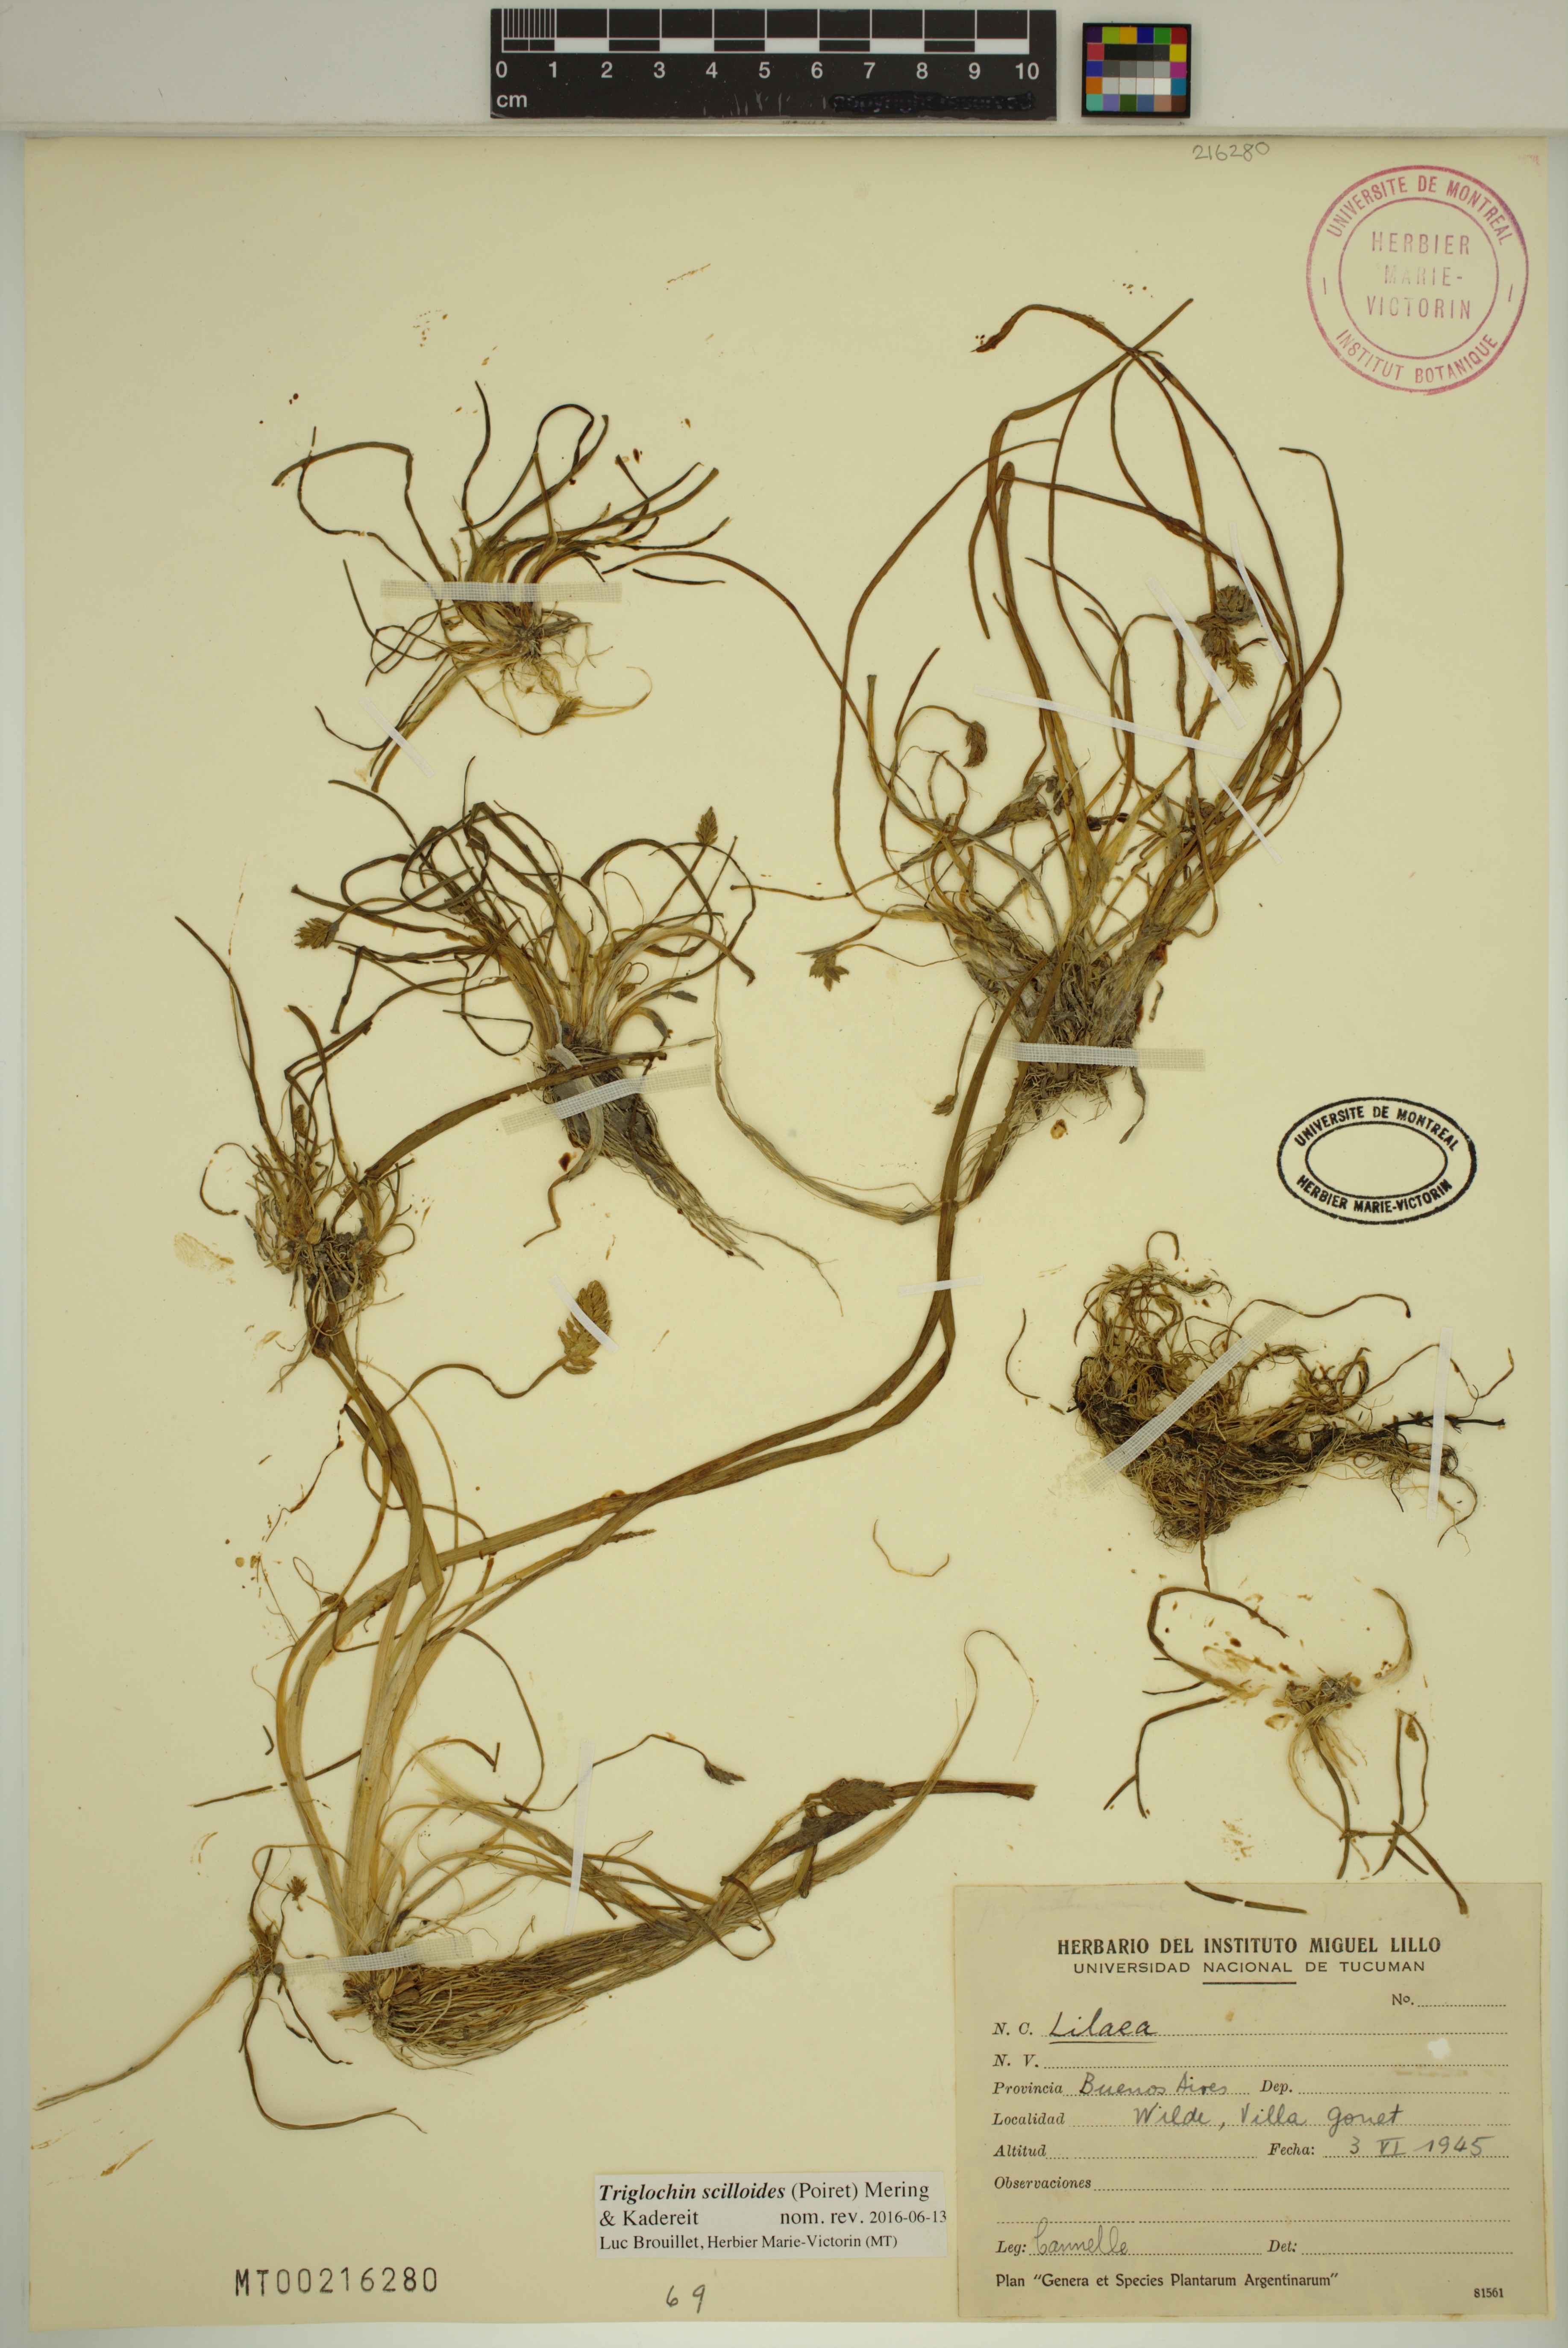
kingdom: Plantae
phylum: Tracheophyta
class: Liliopsida
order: Alismatales
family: Juncaginaceae
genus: Triglochin
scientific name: Triglochin scilloides
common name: Awl-leaved lilaea
